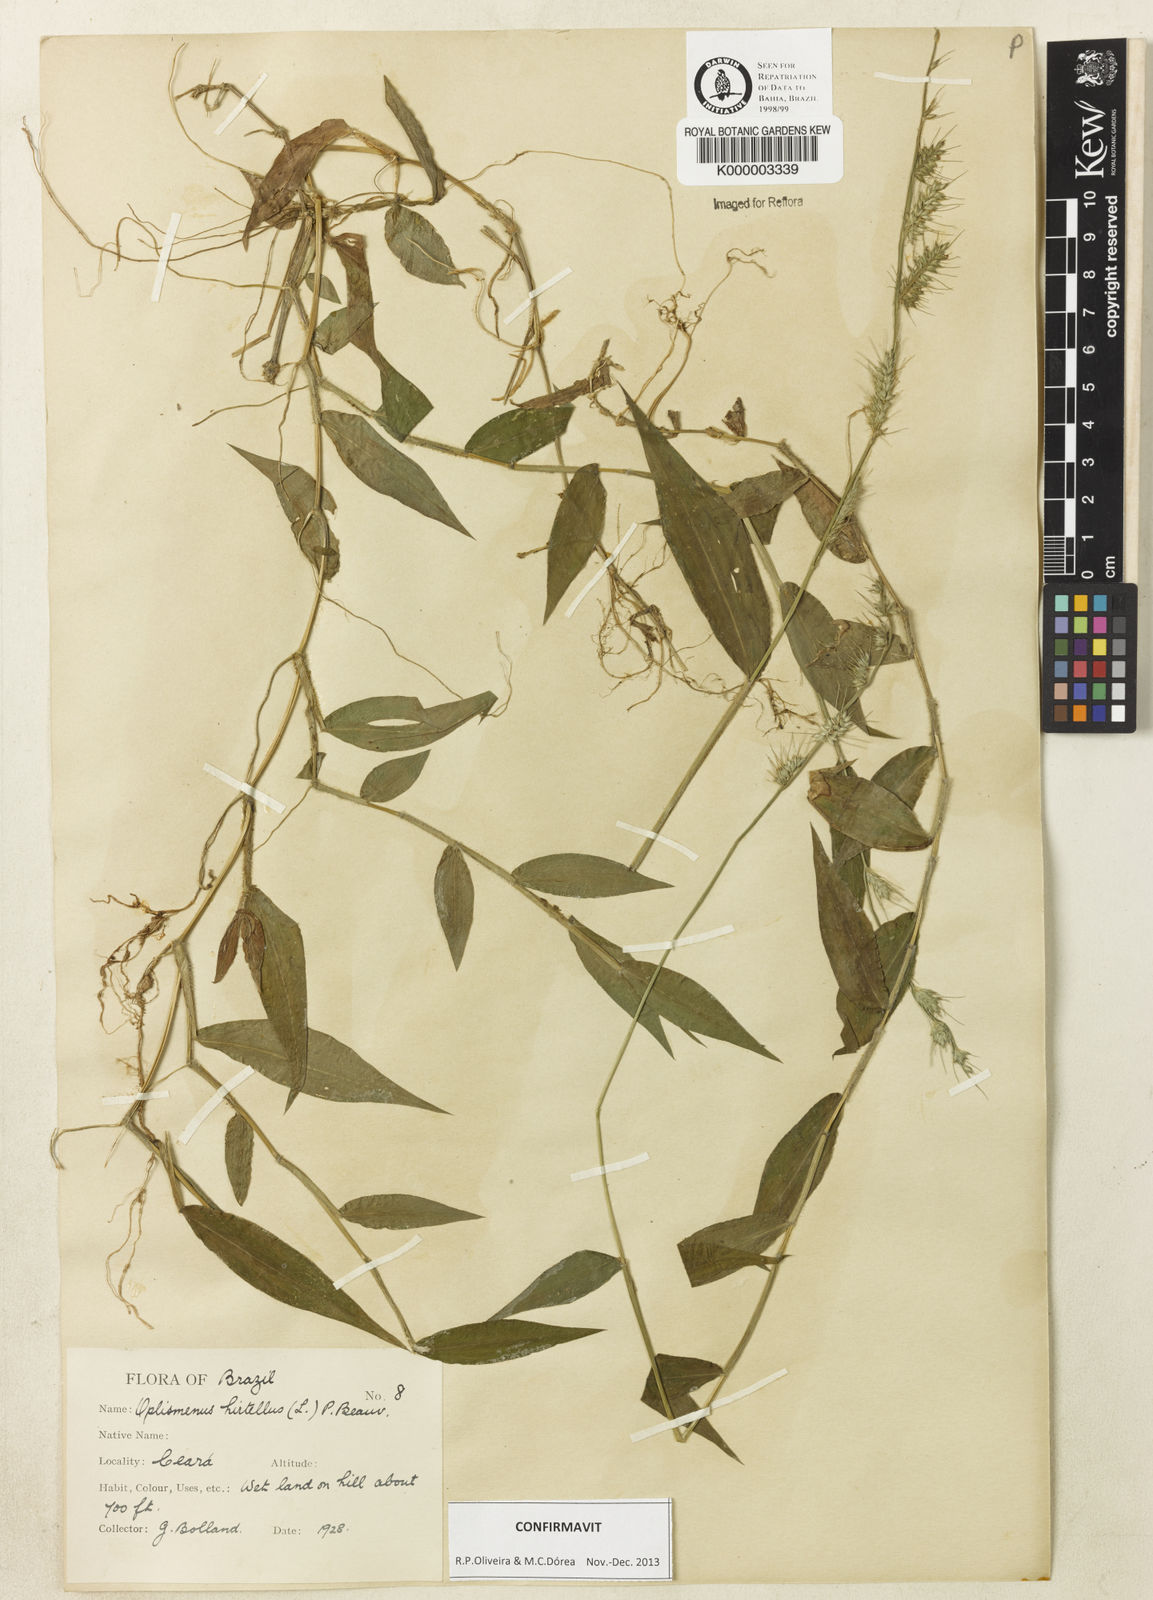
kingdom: Plantae
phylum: Tracheophyta
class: Liliopsida
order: Poales
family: Poaceae
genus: Oplismenus
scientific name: Oplismenus hirtellus
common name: Basketgrass
